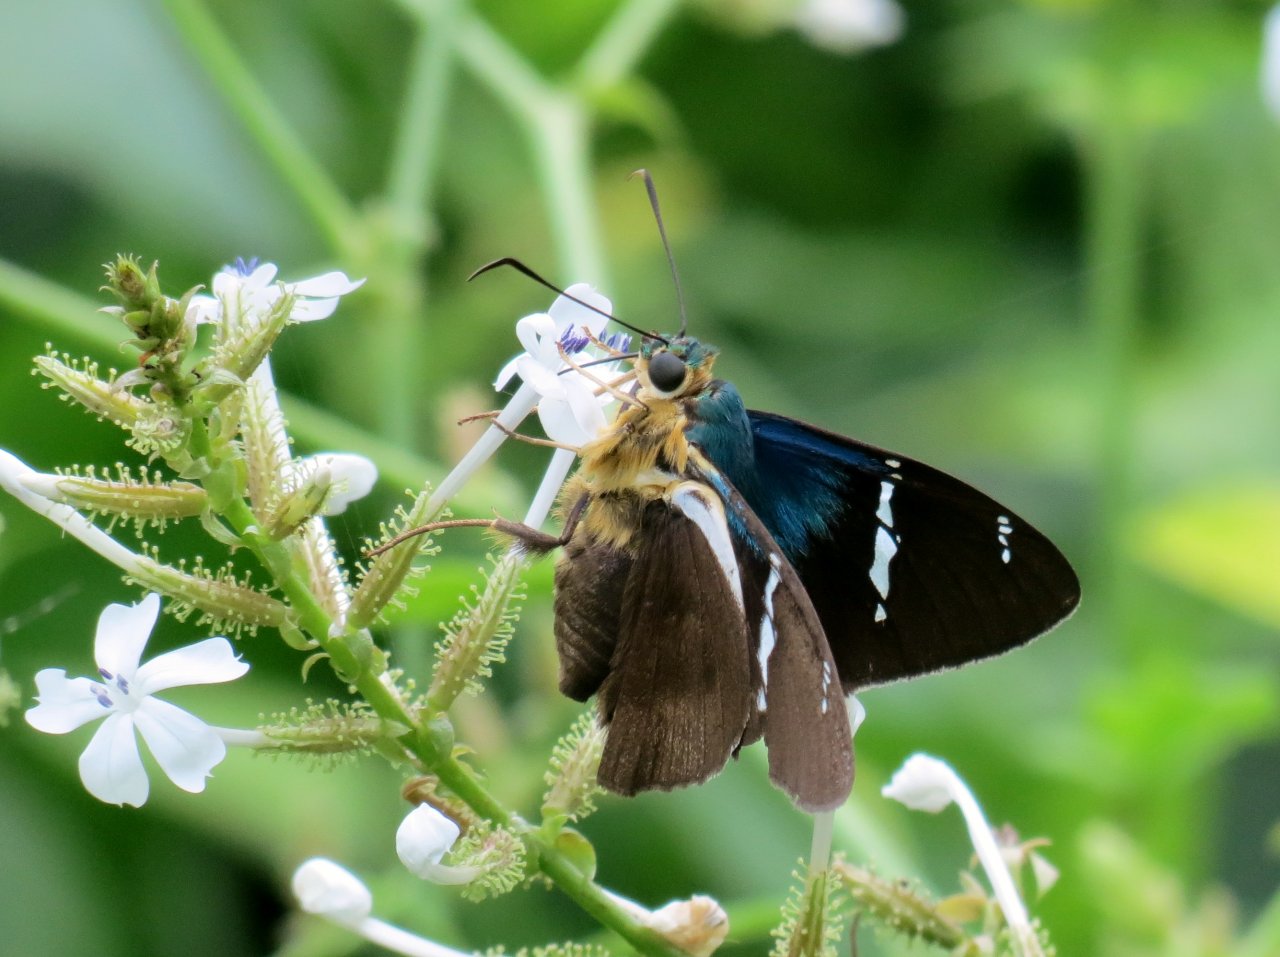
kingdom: Animalia
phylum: Arthropoda
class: Insecta
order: Lepidoptera
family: Hesperiidae
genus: Astraptes
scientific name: Astraptes fulgerator
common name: Two-barred Flasher
